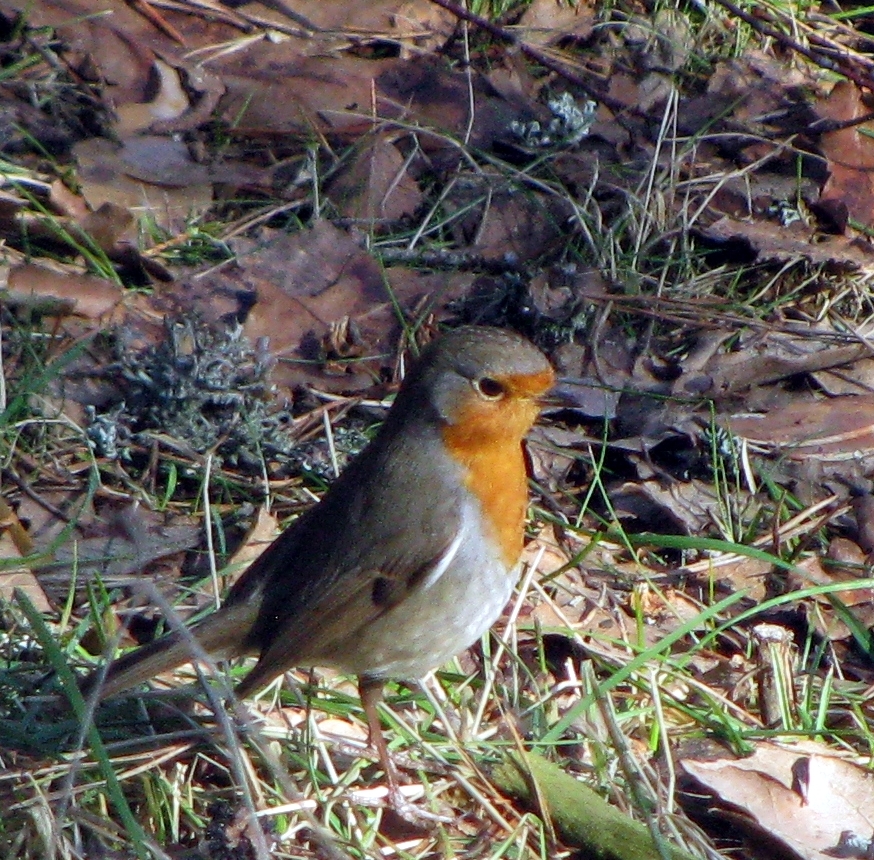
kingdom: Animalia
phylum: Chordata
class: Aves
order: Passeriformes
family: Muscicapidae
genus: Erithacus
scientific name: Erithacus rubecula
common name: European robin
